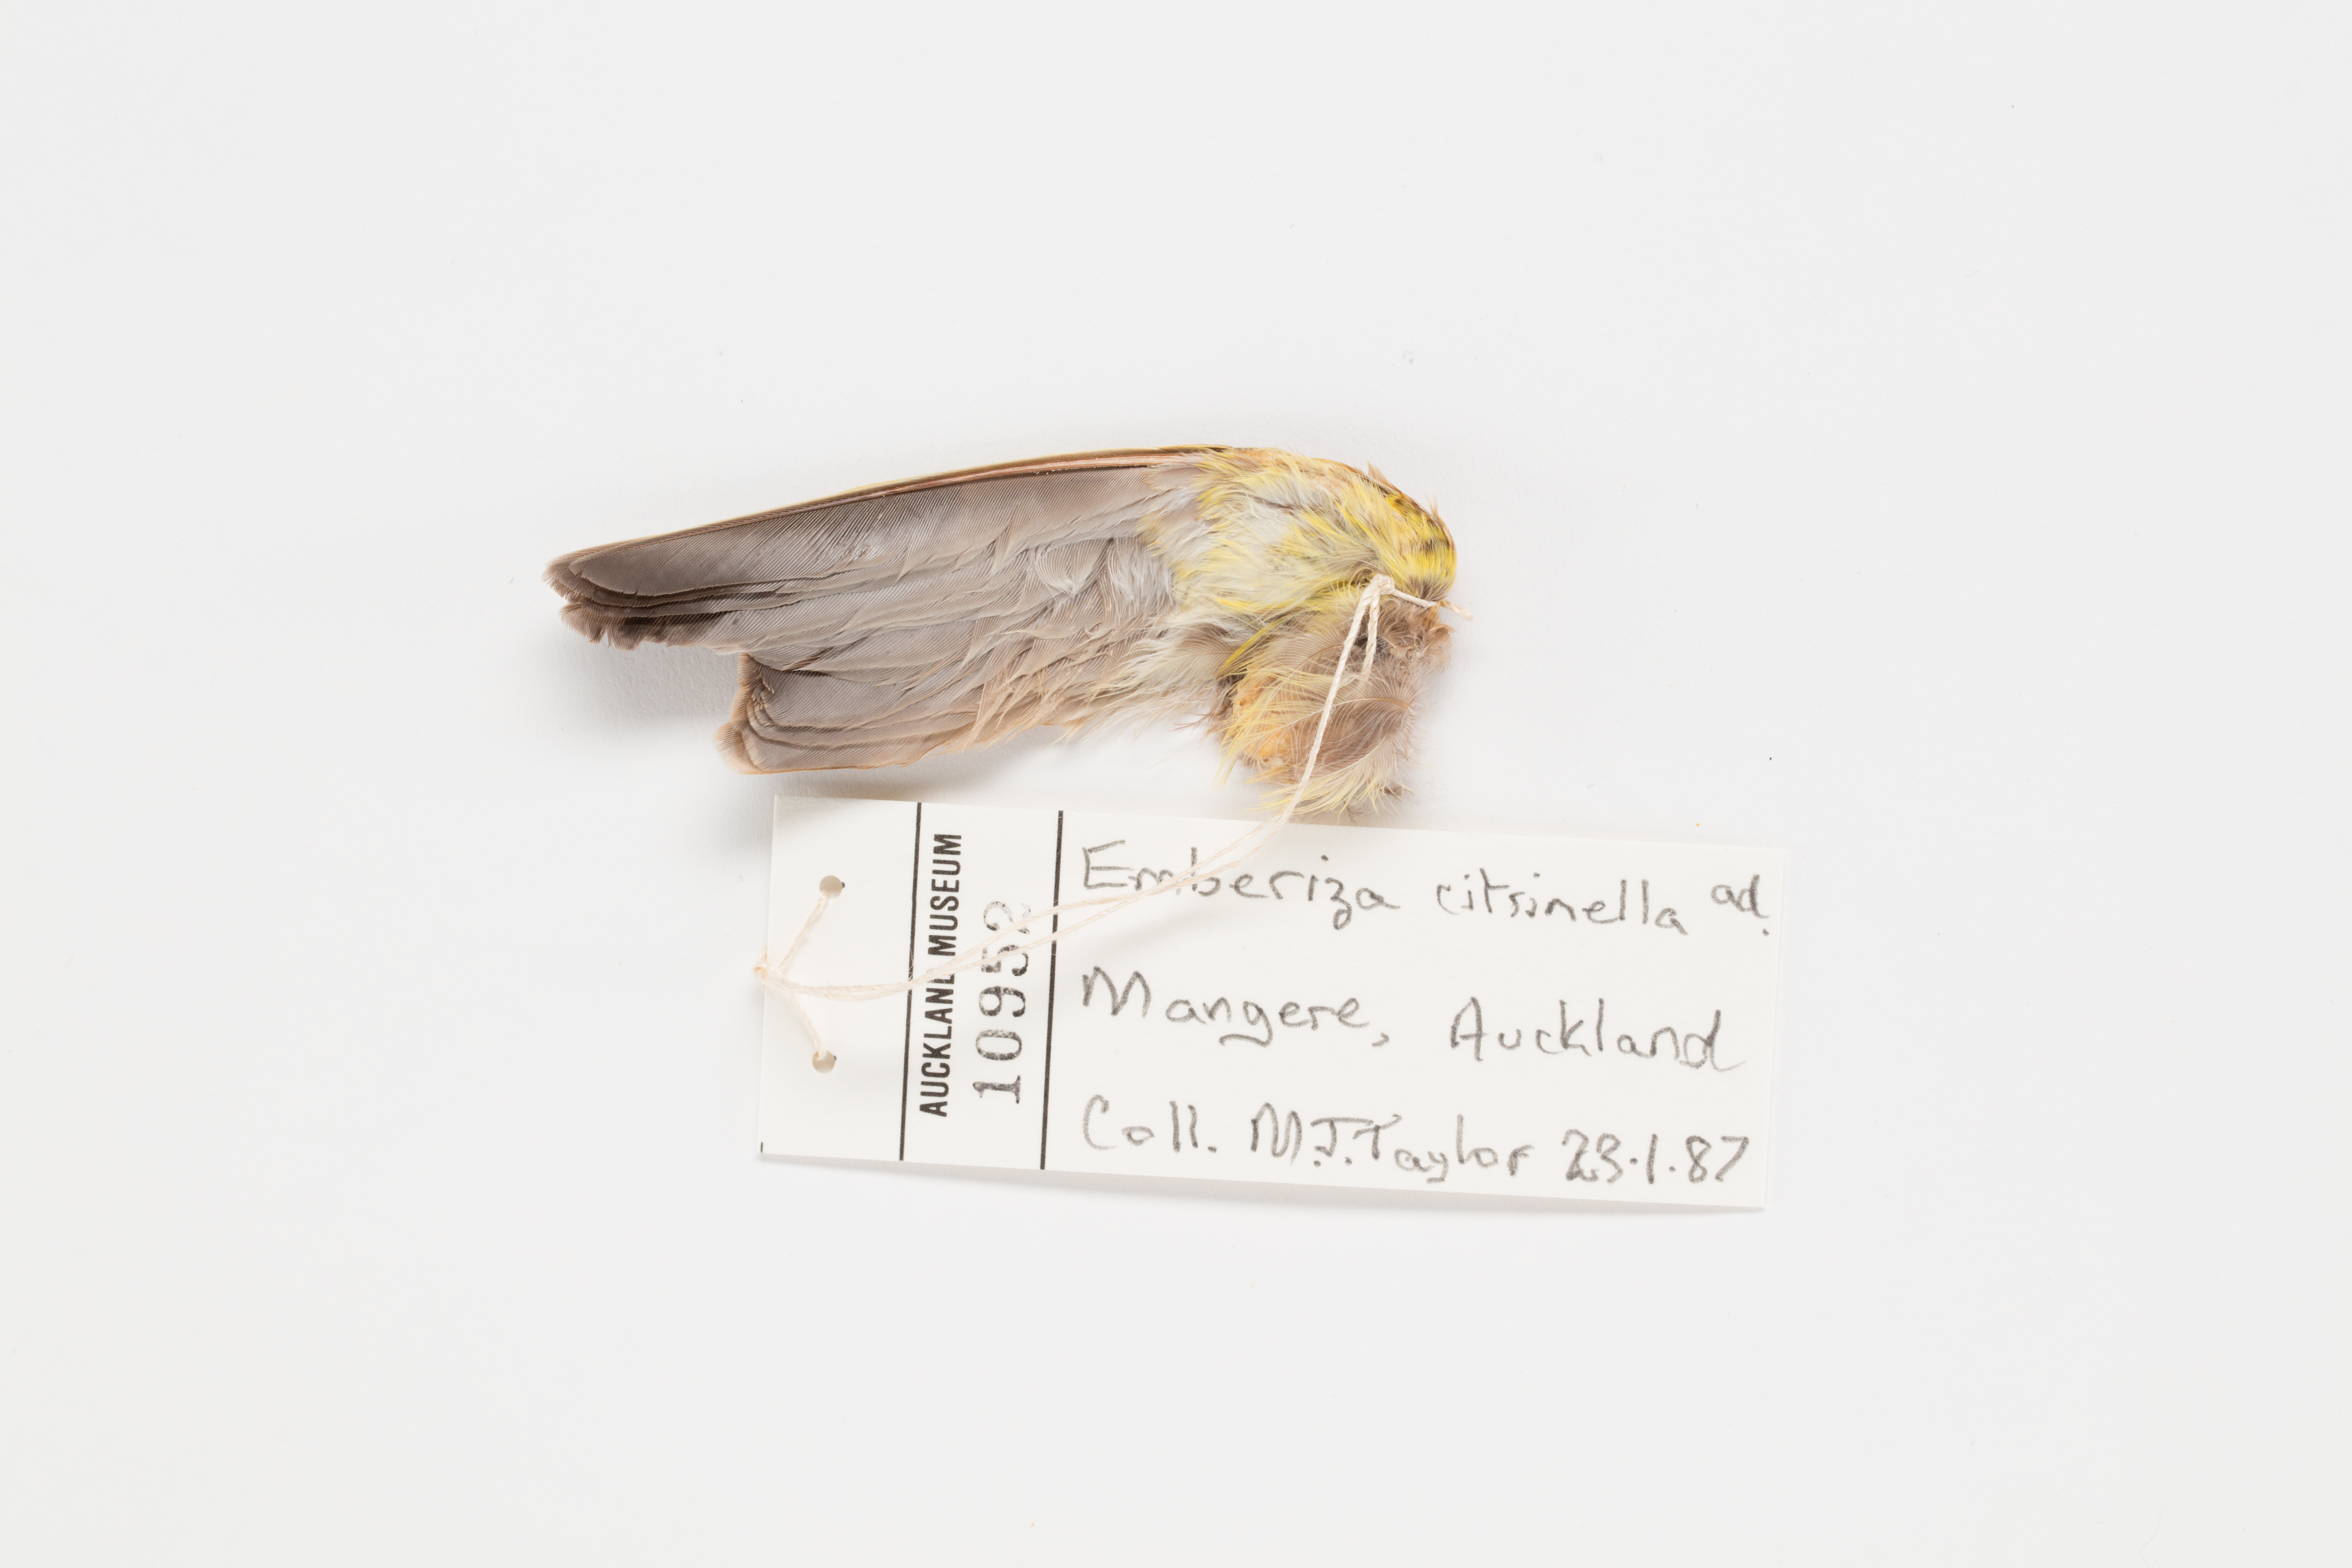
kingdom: Animalia
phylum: Chordata
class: Aves
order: Passeriformes
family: Emberizidae
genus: Emberiza
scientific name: Emberiza citrinella
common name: Yellowhammer
